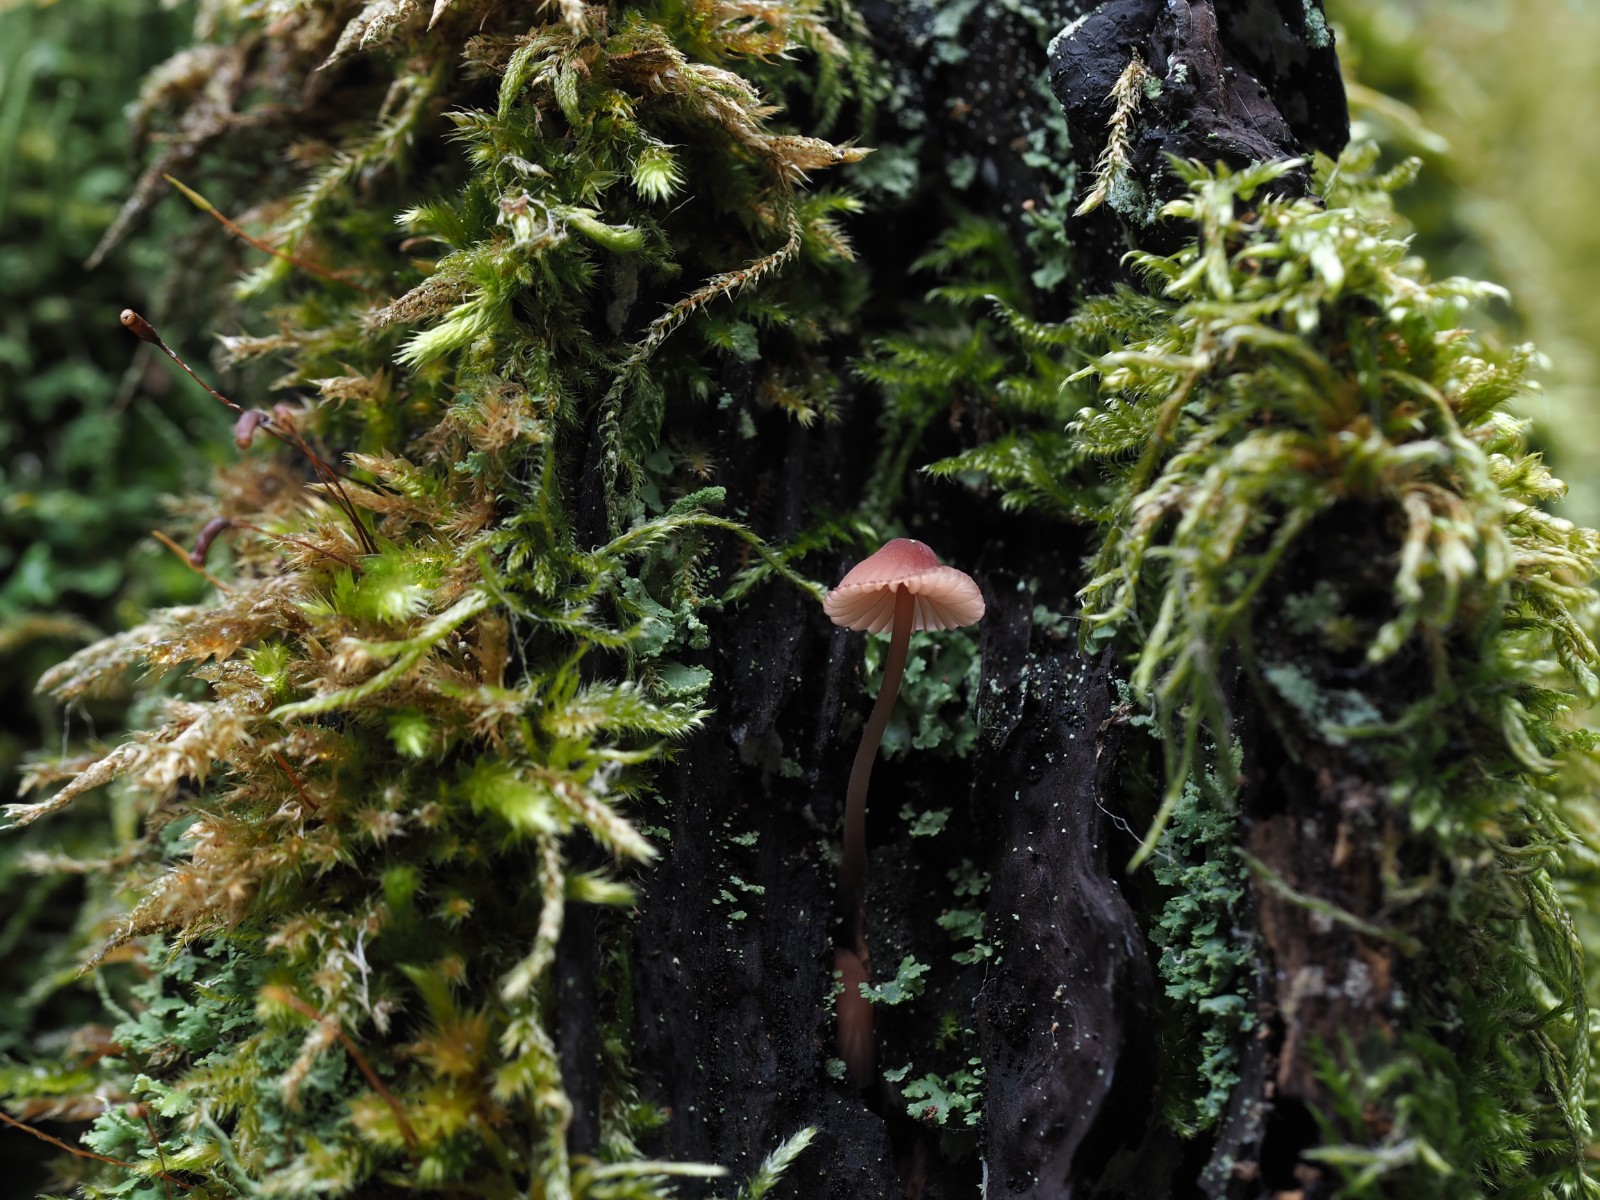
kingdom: Fungi
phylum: Basidiomycota
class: Agaricomycetes
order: Agaricales
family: Mycenaceae
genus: Mycena
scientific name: Mycena sanguinolenta
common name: rødmælket huesvamp
